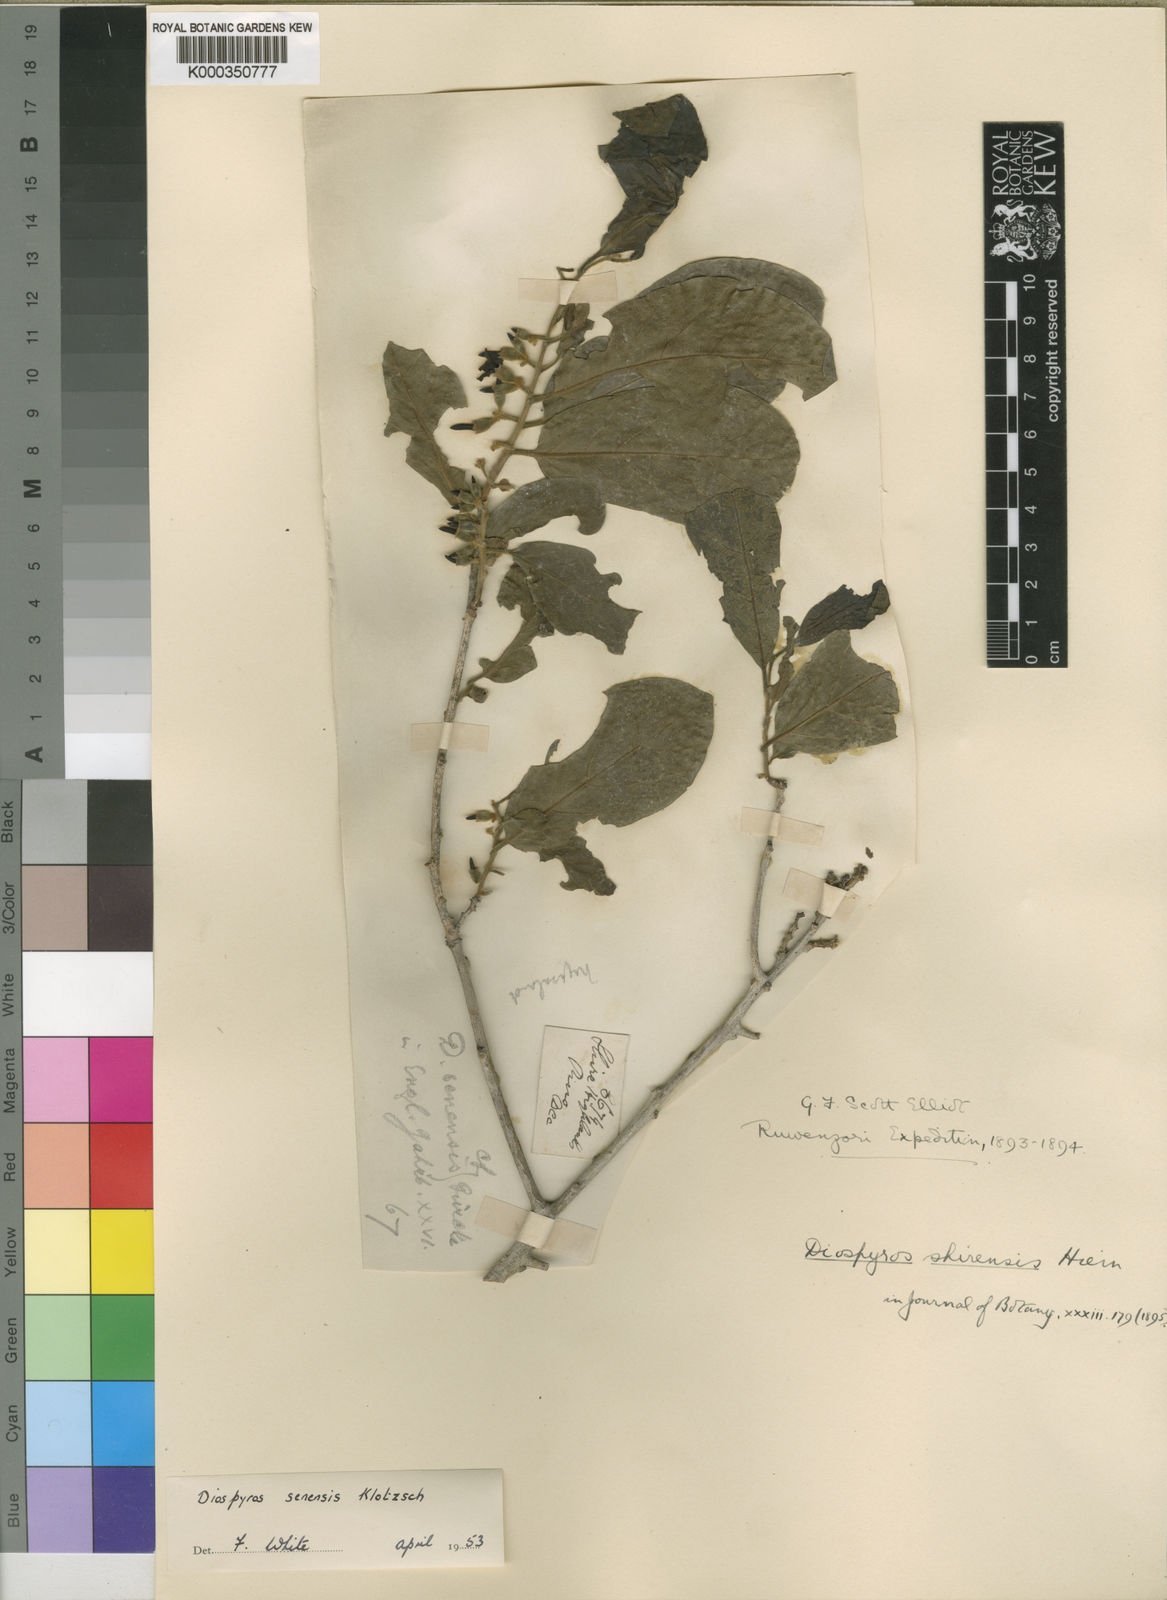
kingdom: Plantae
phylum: Tracheophyta
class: Magnoliopsida
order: Ericales
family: Ebenaceae
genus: Diospyros
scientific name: Diospyros senensis
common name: Spiny jackal berry
